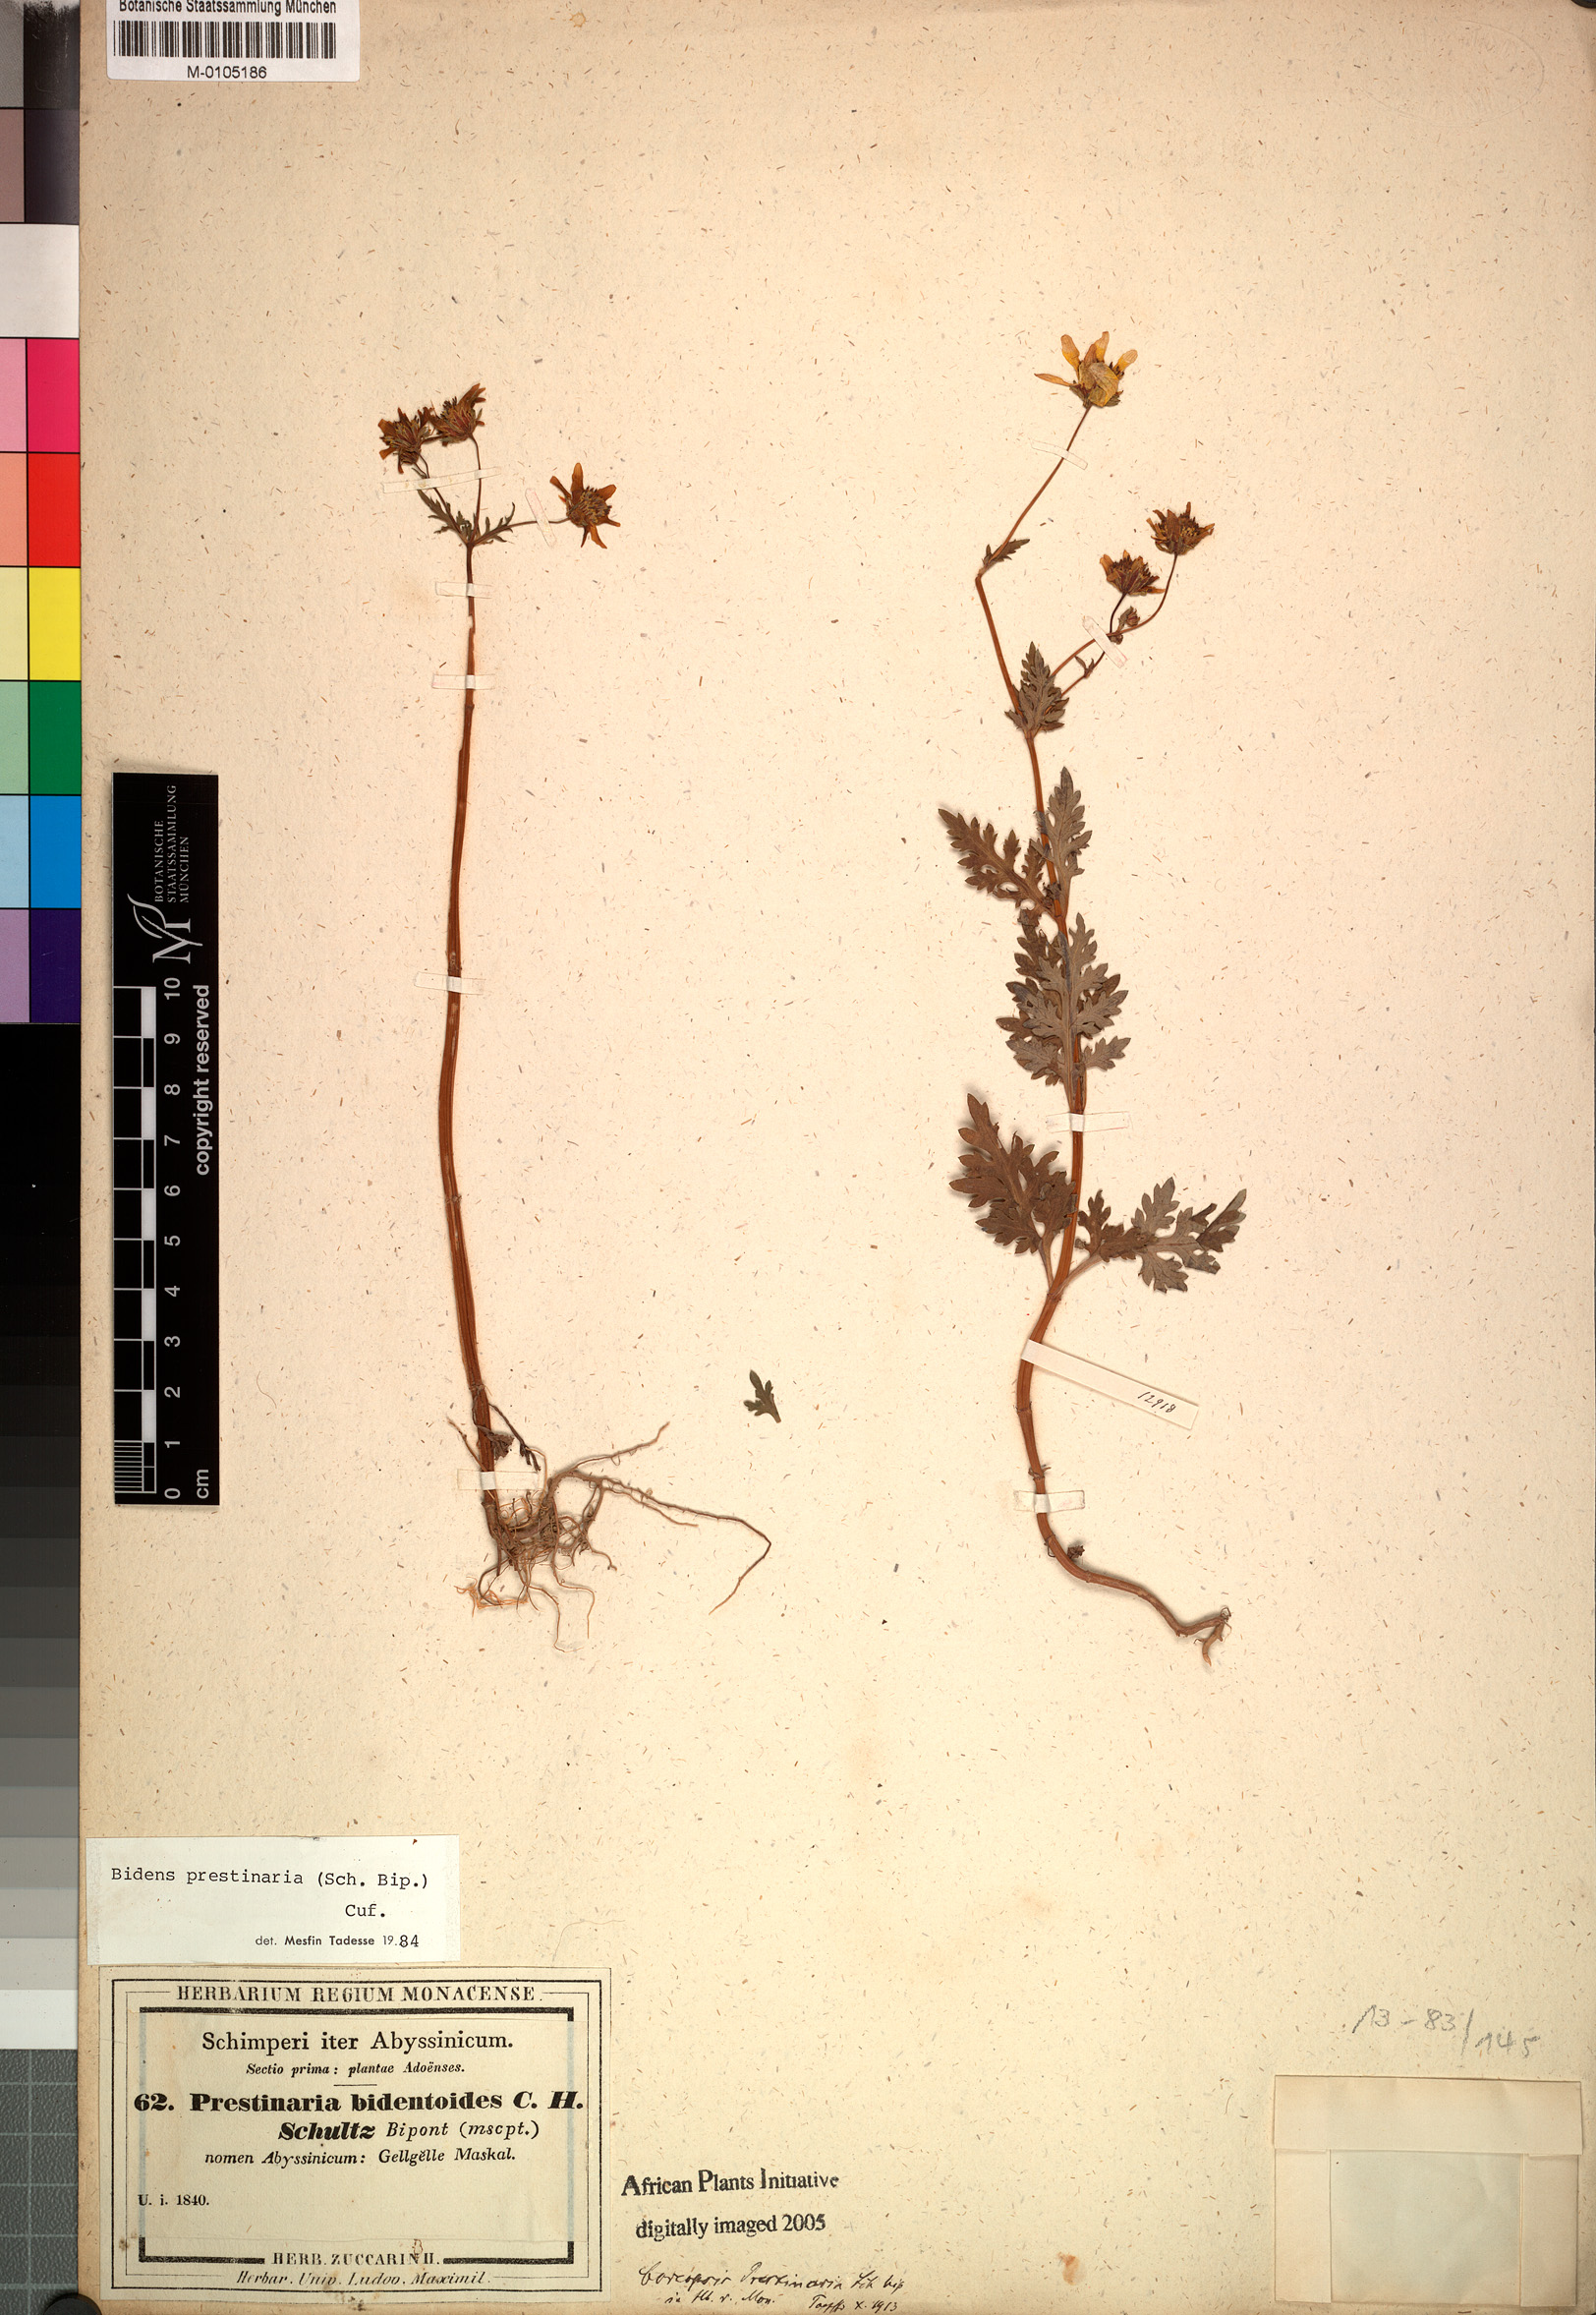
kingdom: Plantae
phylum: Tracheophyta
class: Magnoliopsida
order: Asterales
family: Asteraceae
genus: Bidens
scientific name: Bidens prestinaria
